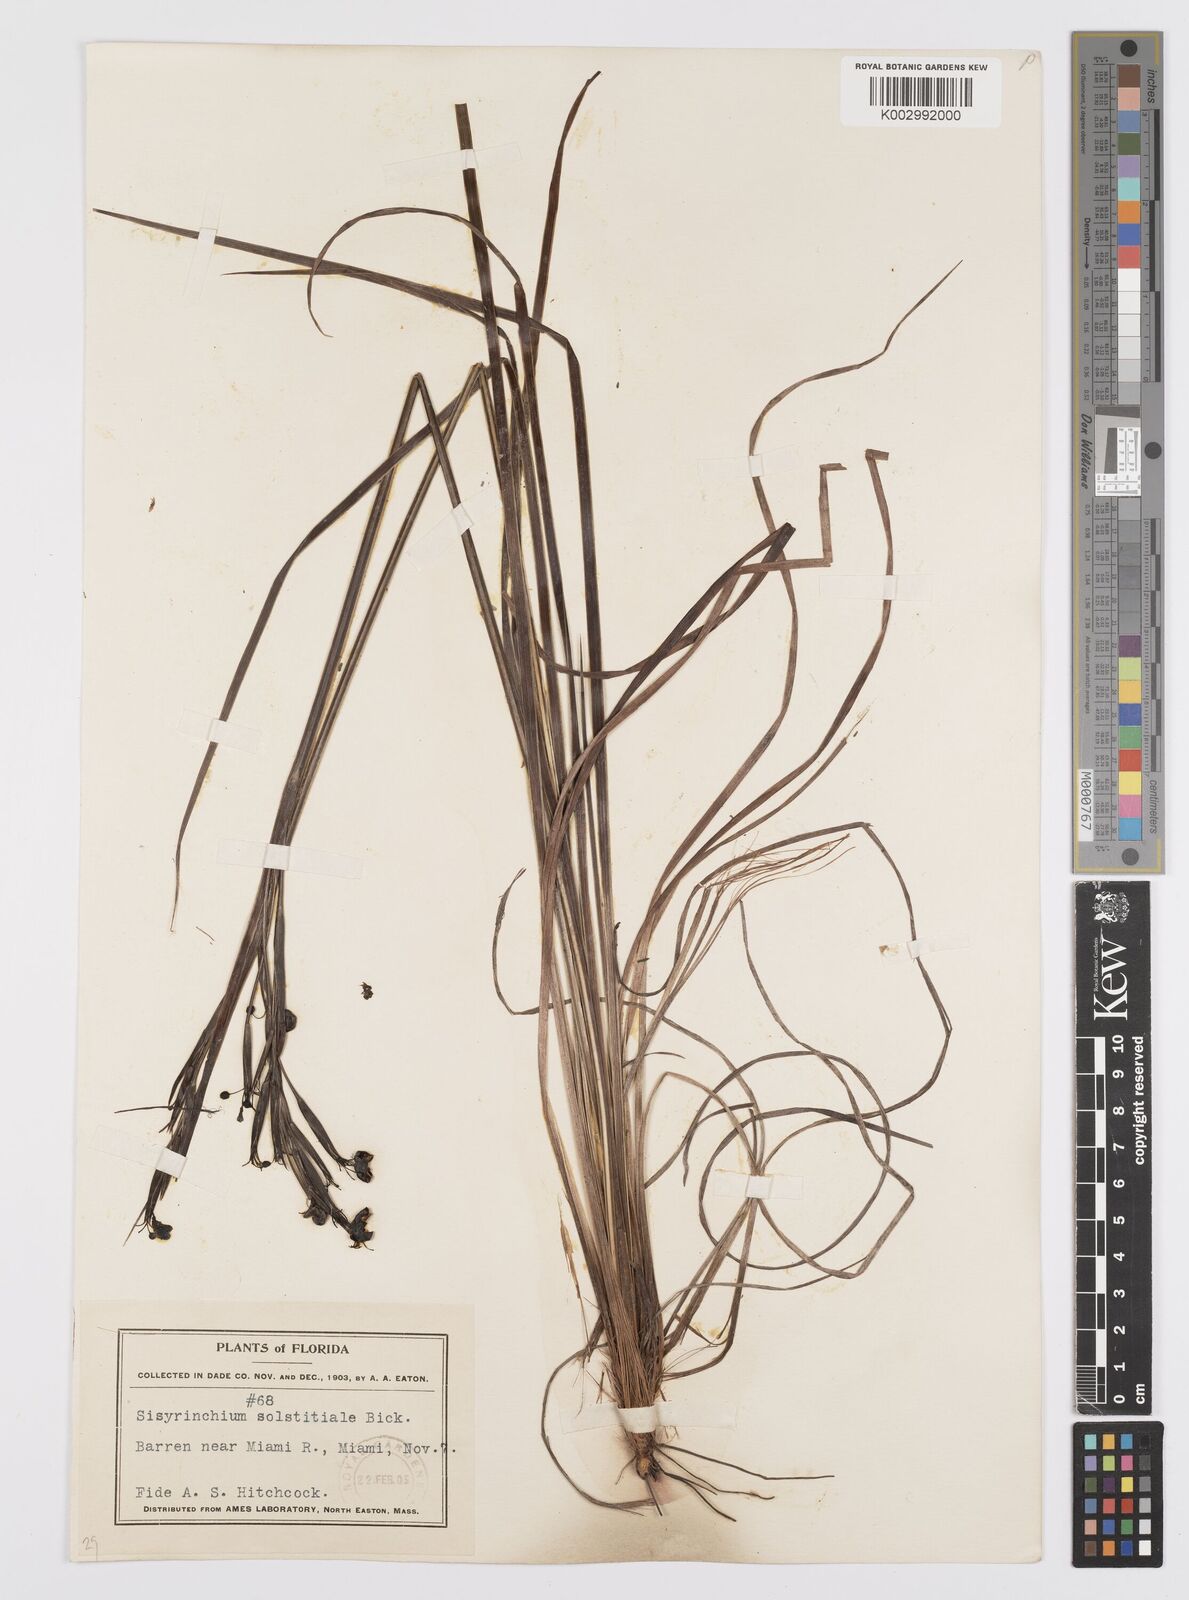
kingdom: Plantae
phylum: Tracheophyta
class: Liliopsida
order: Asparagales
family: Iridaceae
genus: Sisyrinchium
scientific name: Sisyrinchium xerophyllum
